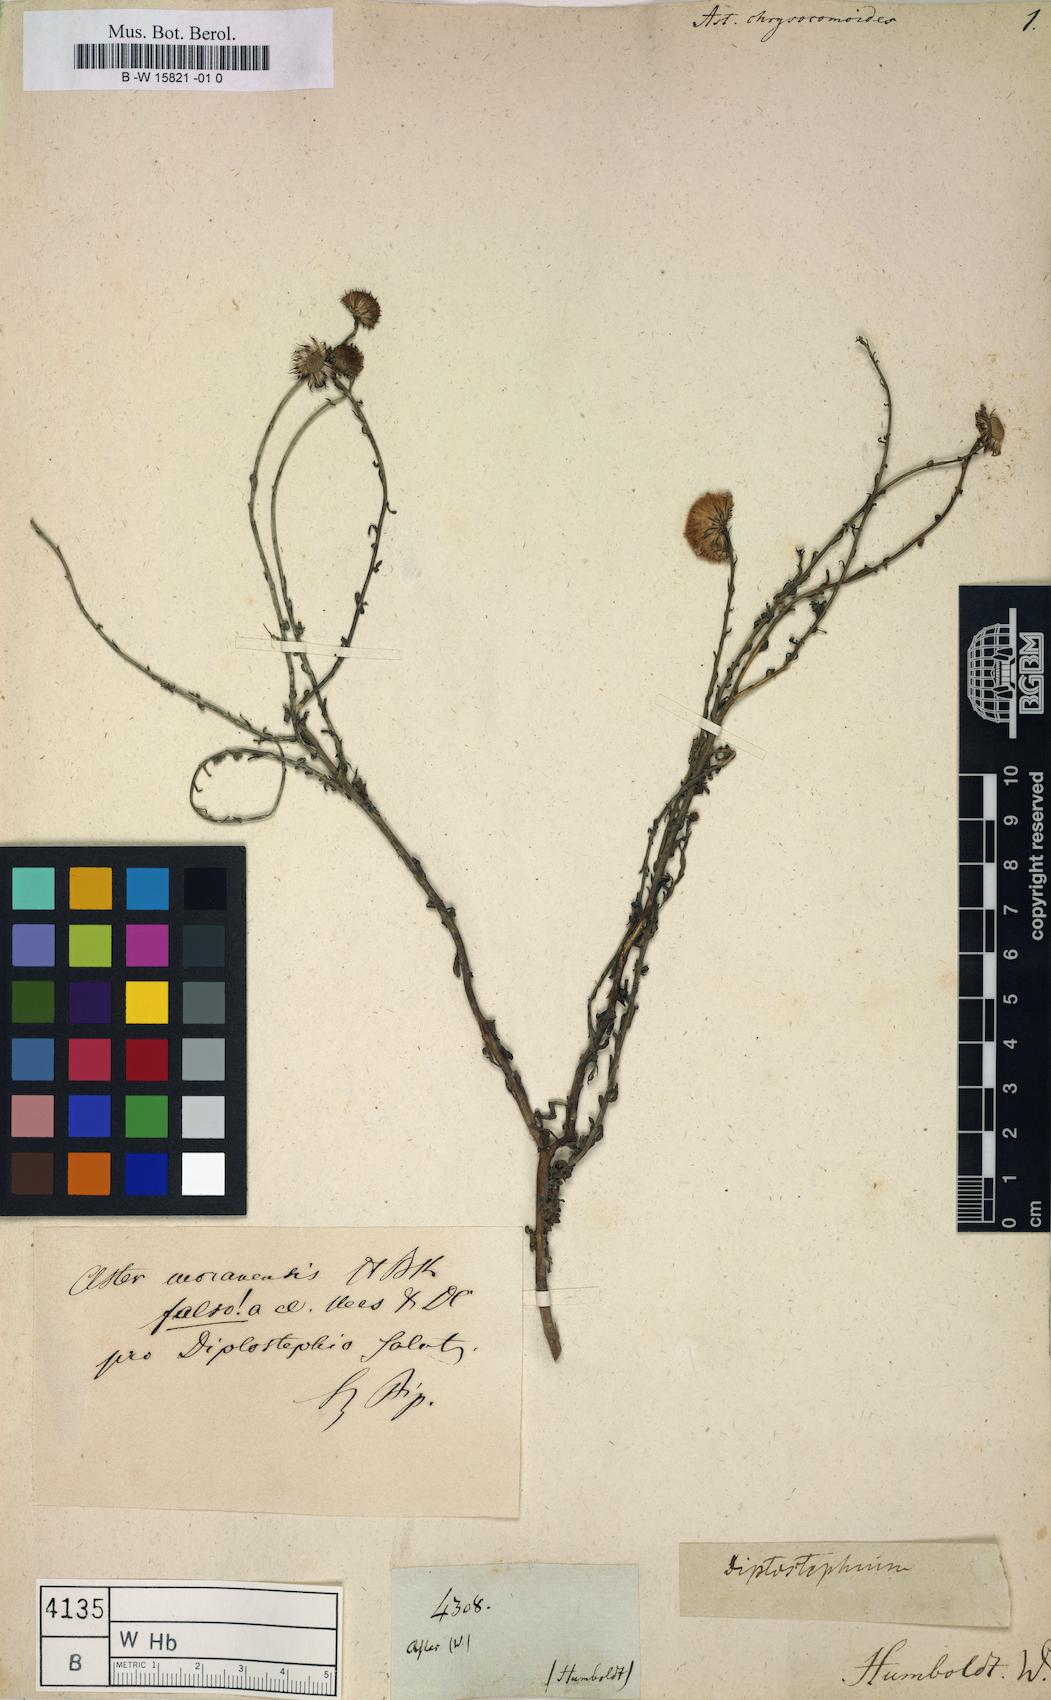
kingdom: Plantae
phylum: Tracheophyta
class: Magnoliopsida
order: Asterales
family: Asteraceae
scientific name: Asteraceae
